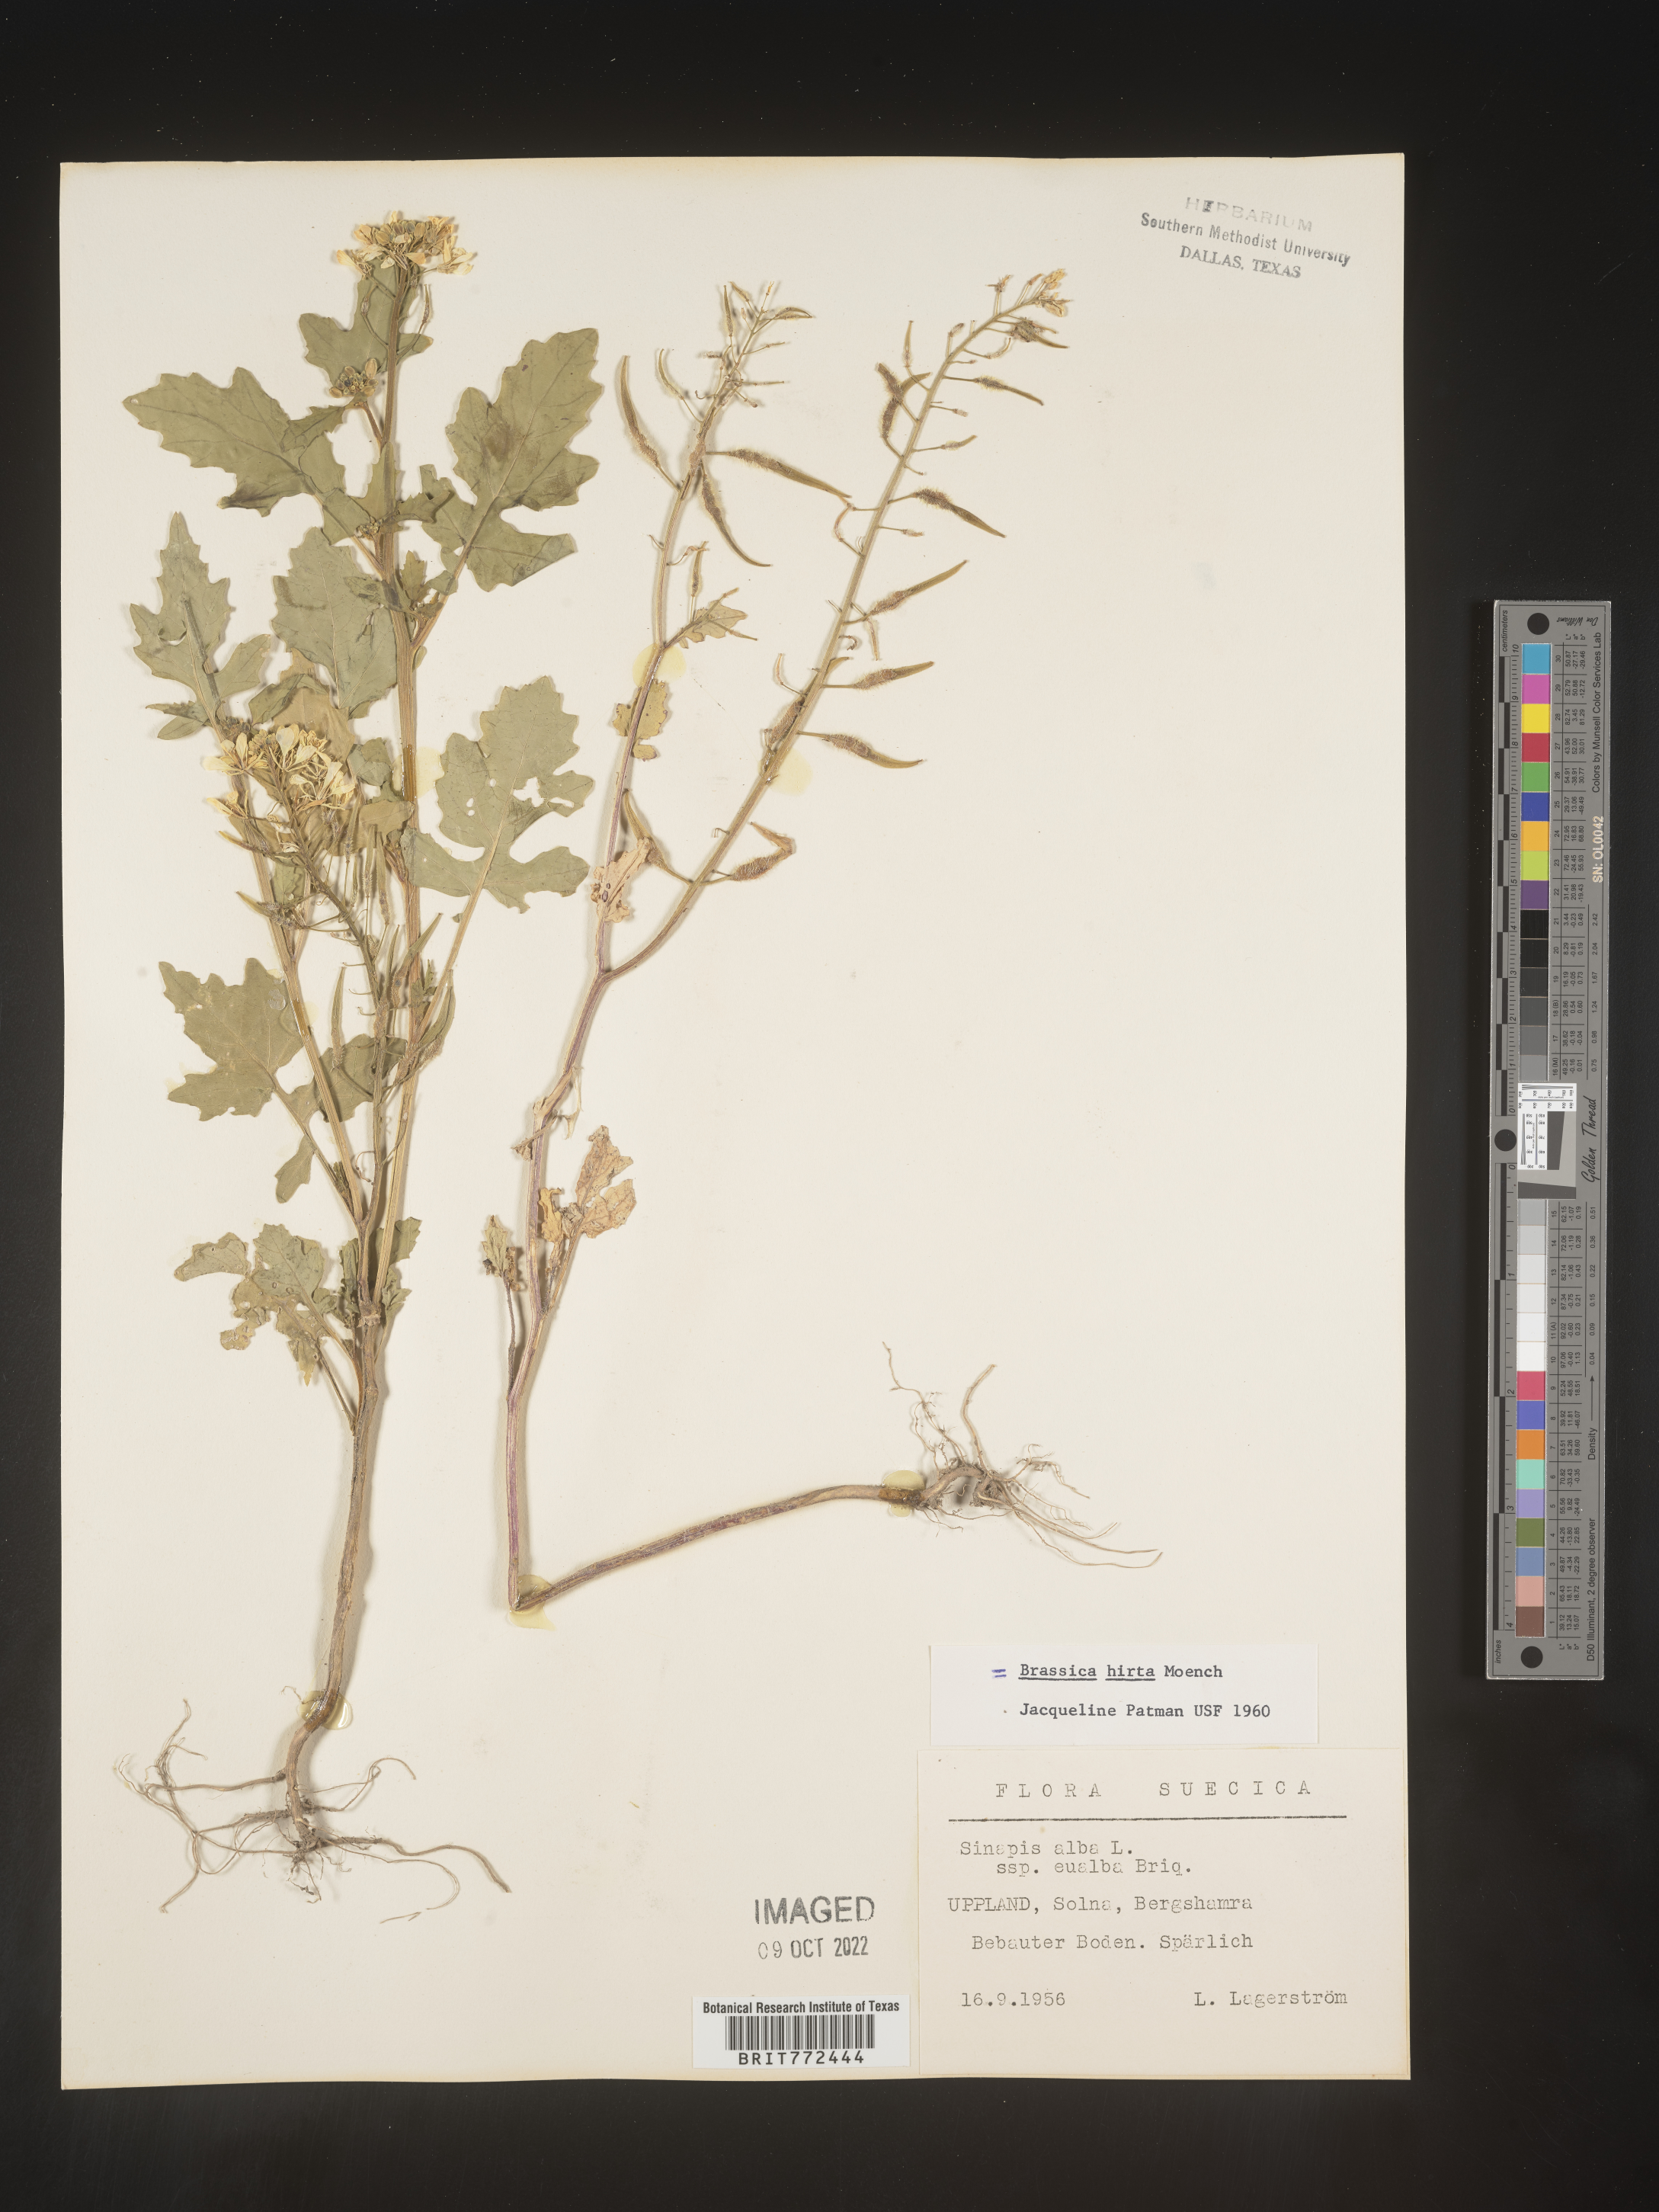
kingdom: Plantae
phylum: Tracheophyta
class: Magnoliopsida
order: Brassicales
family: Brassicaceae
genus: Brassica
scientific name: Brassica
